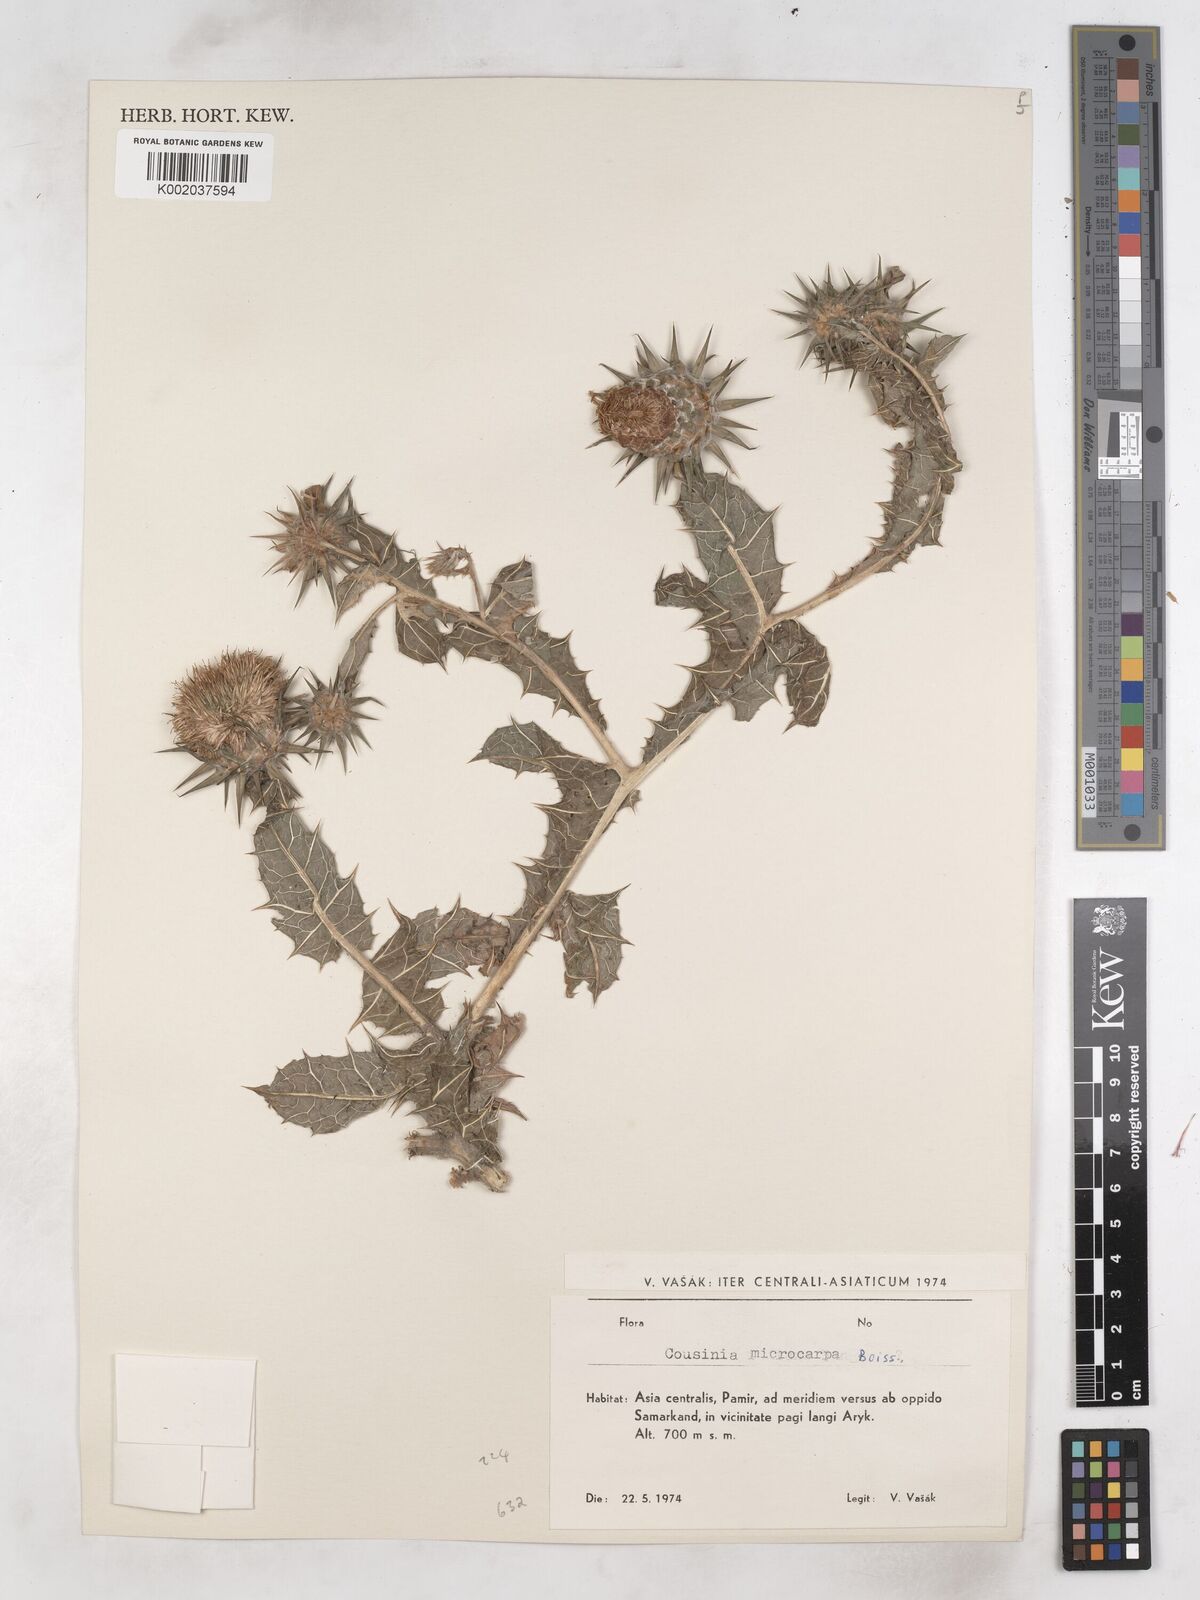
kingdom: Plantae
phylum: Tracheophyta
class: Magnoliopsida
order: Asterales
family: Asteraceae
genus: Cousinia
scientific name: Cousinia microcarpa
